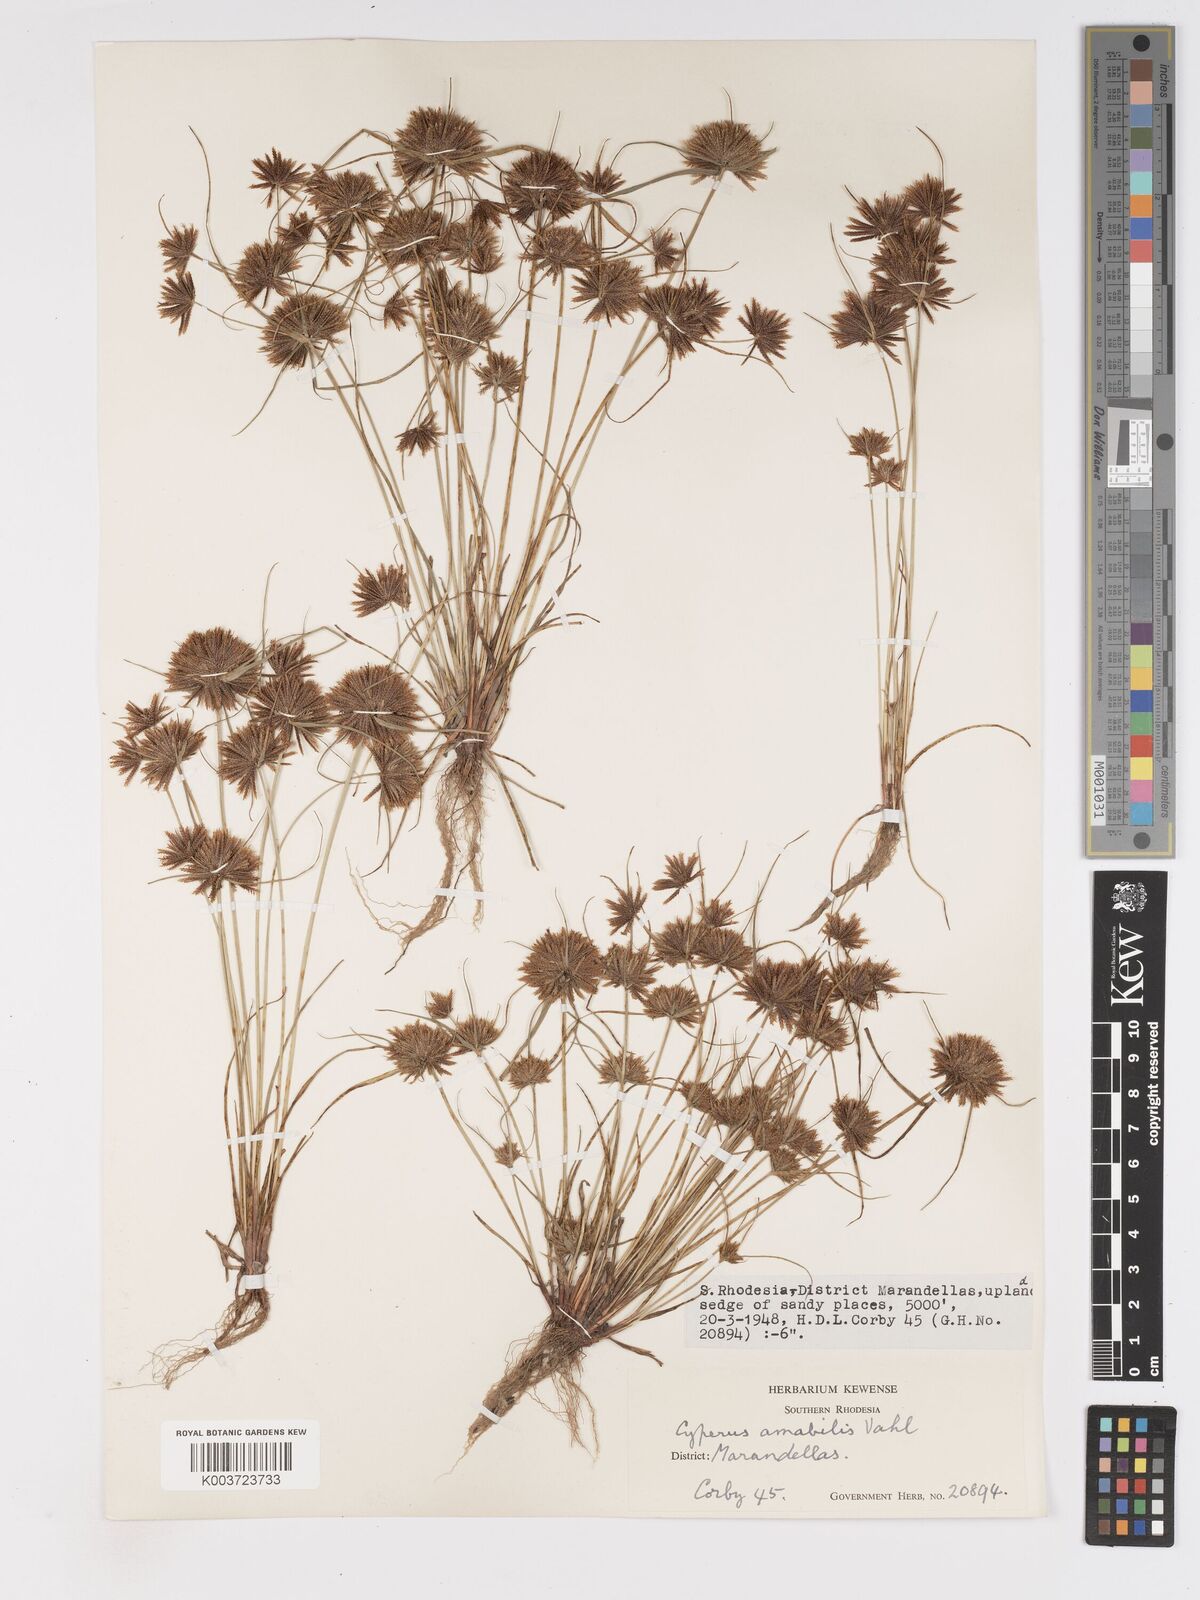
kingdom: Plantae
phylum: Tracheophyta
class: Liliopsida
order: Poales
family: Cyperaceae
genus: Cyperus
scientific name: Cyperus amabilis
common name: Foothill flat sedge
